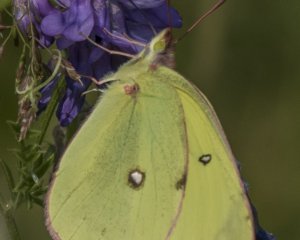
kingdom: Animalia
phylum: Arthropoda
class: Insecta
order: Lepidoptera
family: Pieridae
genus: Colias
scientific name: Colias interior
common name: Pink-edged Sulphur
